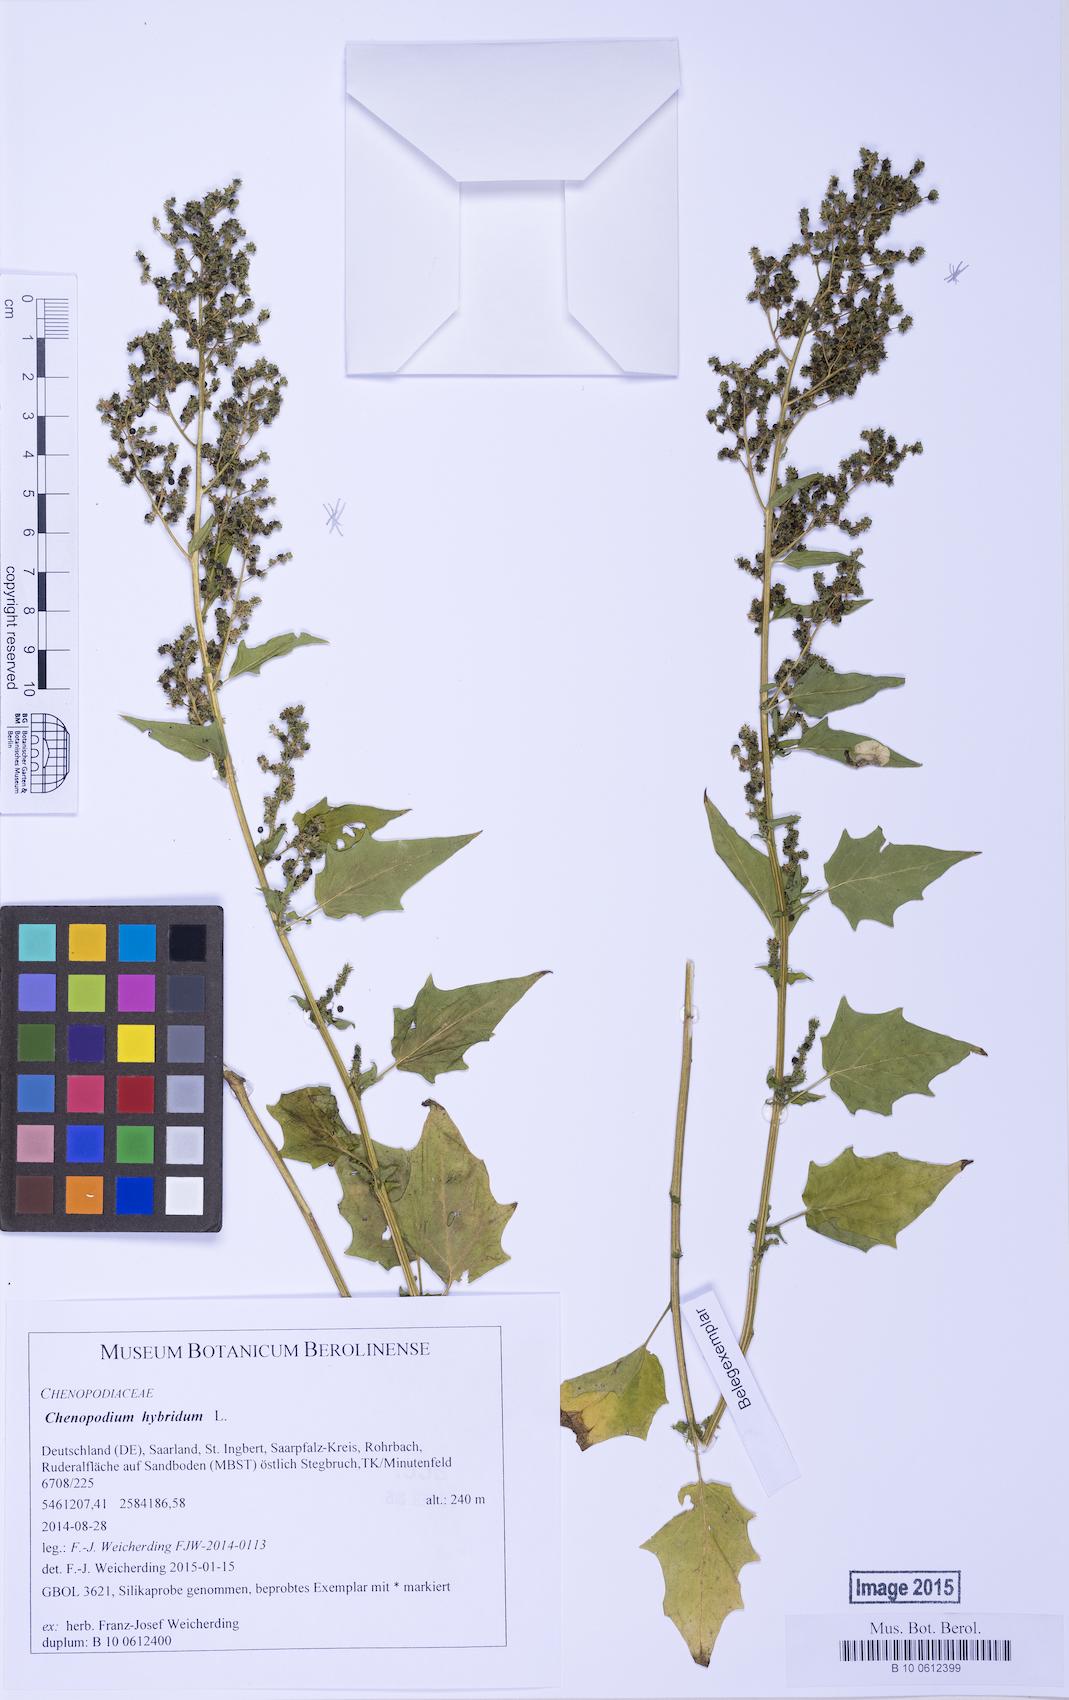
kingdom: Plantae
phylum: Tracheophyta
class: Magnoliopsida
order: Caryophyllales
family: Amaranthaceae
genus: Chenopodiastrum
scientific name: Chenopodiastrum hybridum
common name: Mapleleaf goosefoot
